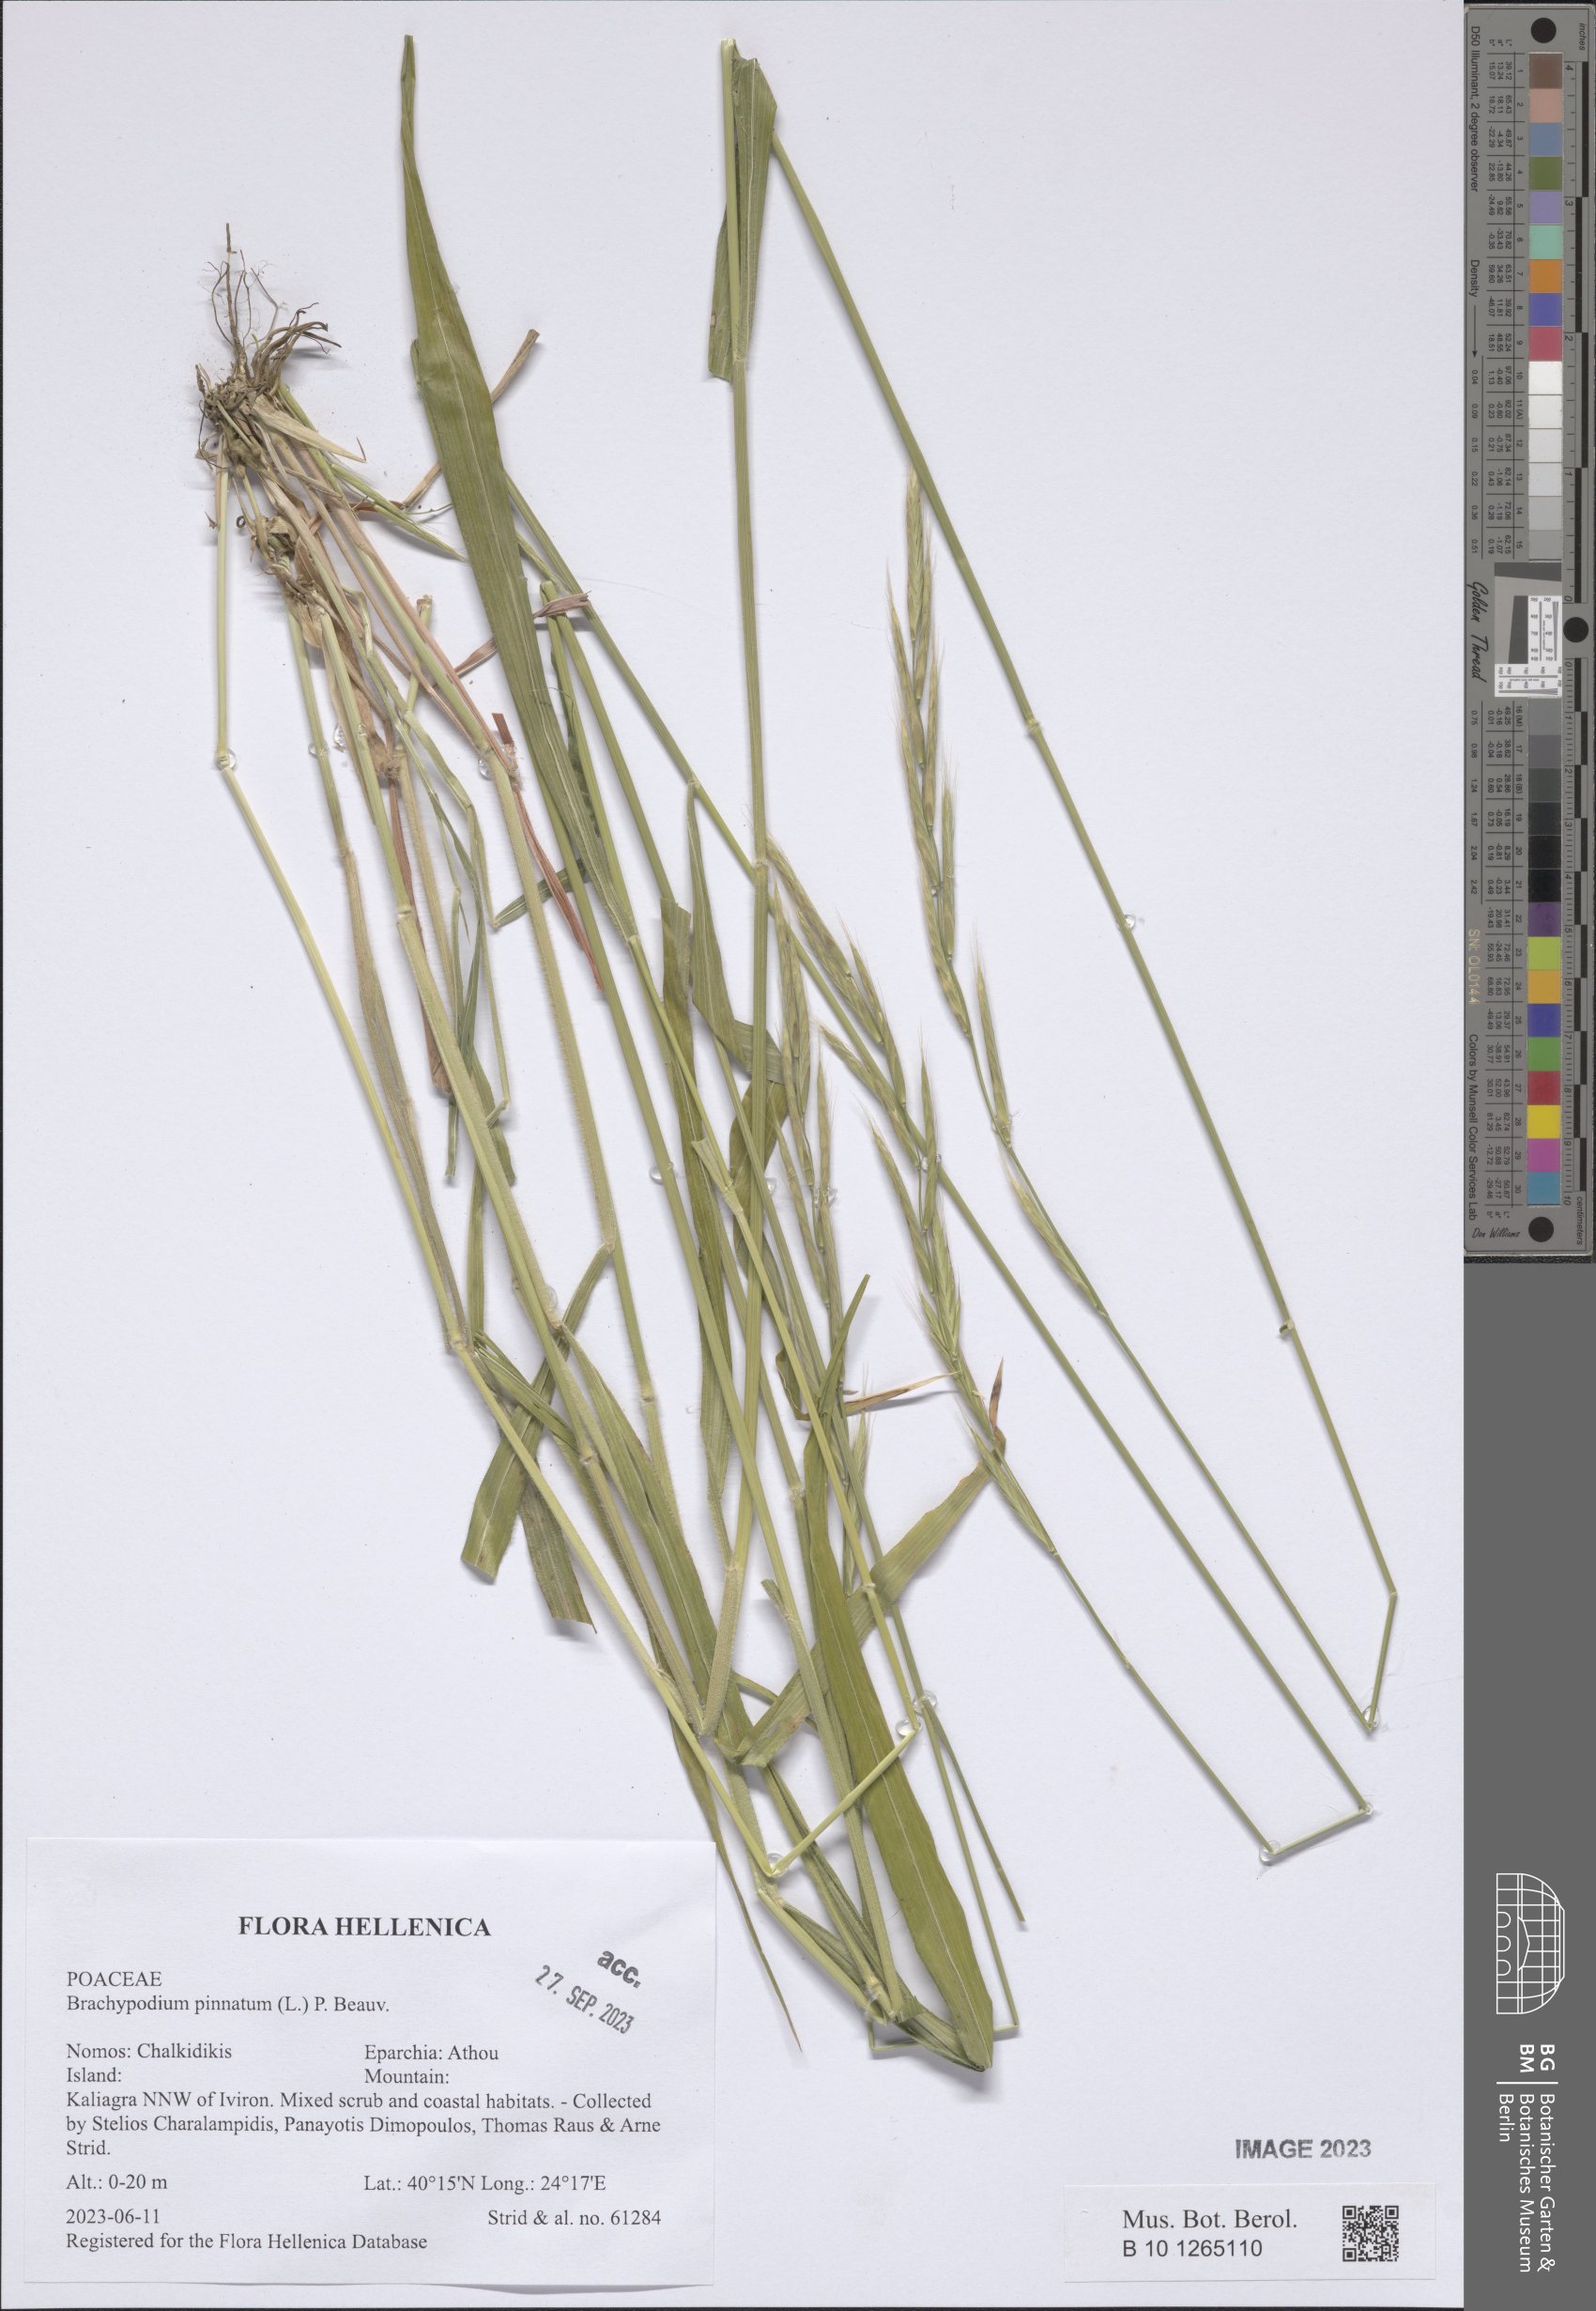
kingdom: Plantae
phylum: Tracheophyta
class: Liliopsida
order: Poales
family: Poaceae
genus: Brachypodium
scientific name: Brachypodium pinnatum
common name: Tor grass
